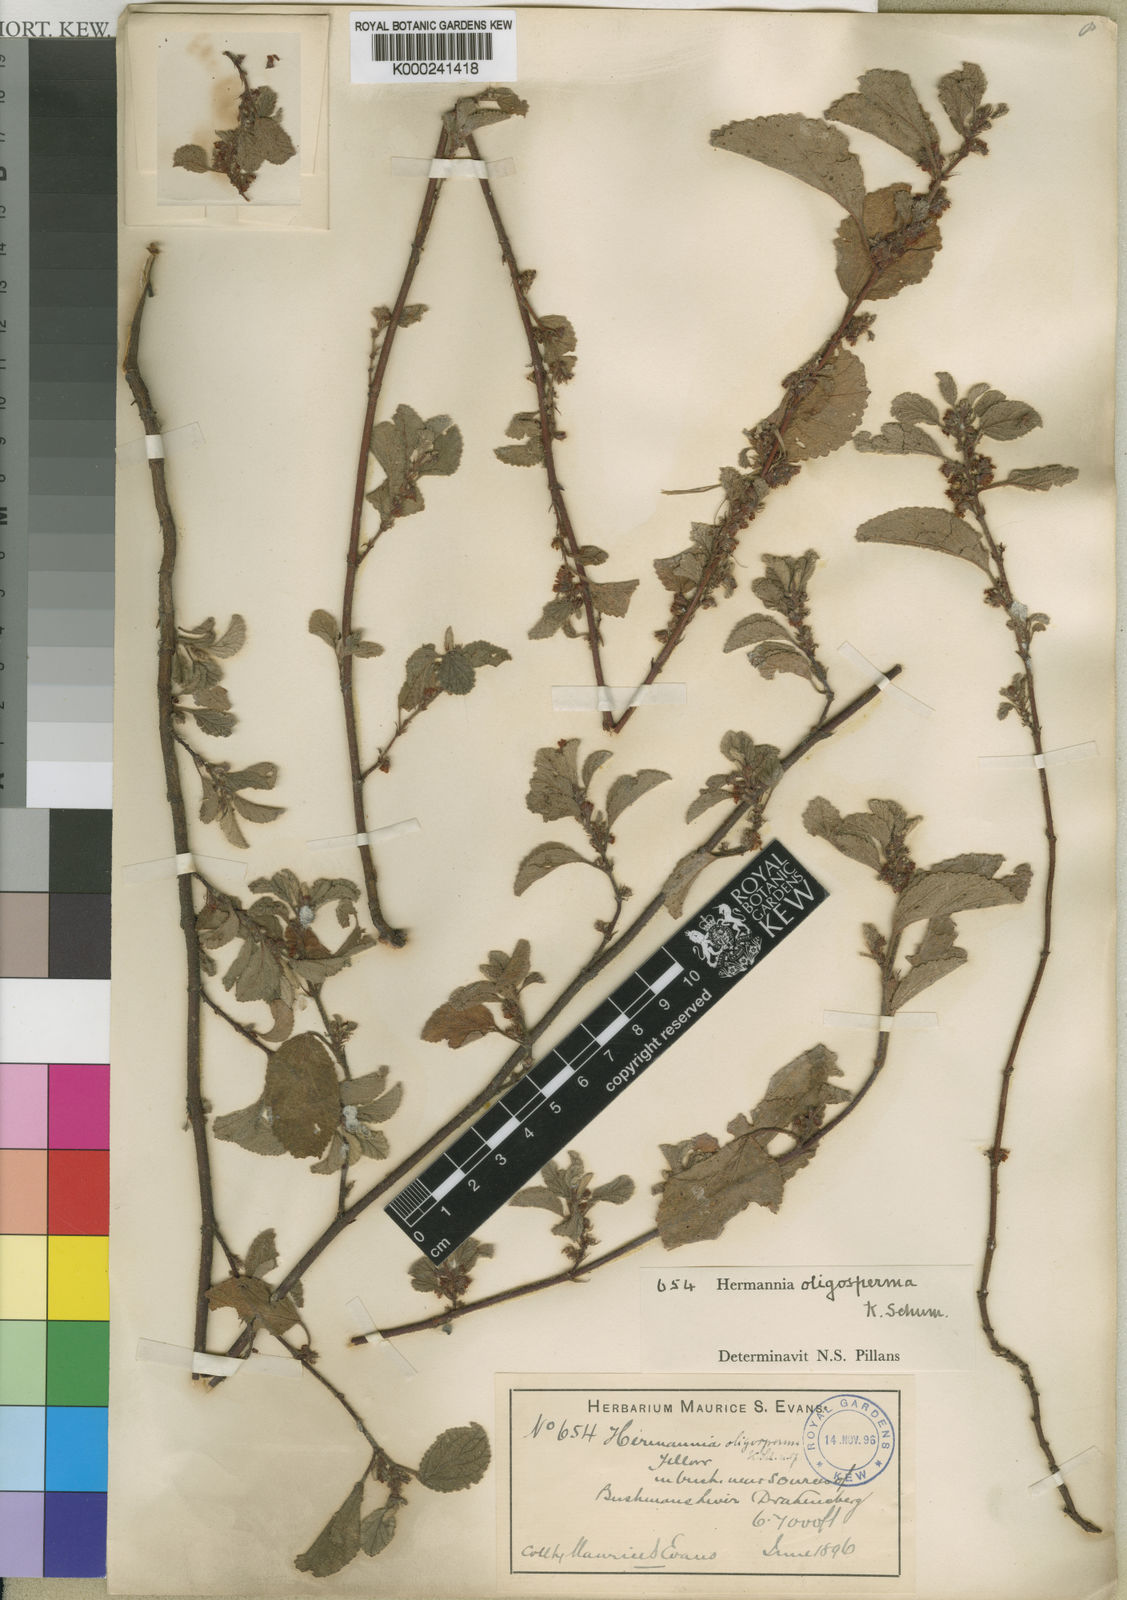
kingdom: Plantae
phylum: Tracheophyta
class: Magnoliopsida
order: Malvales
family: Malvaceae
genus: Hermannia
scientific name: Hermannia oligosperma
